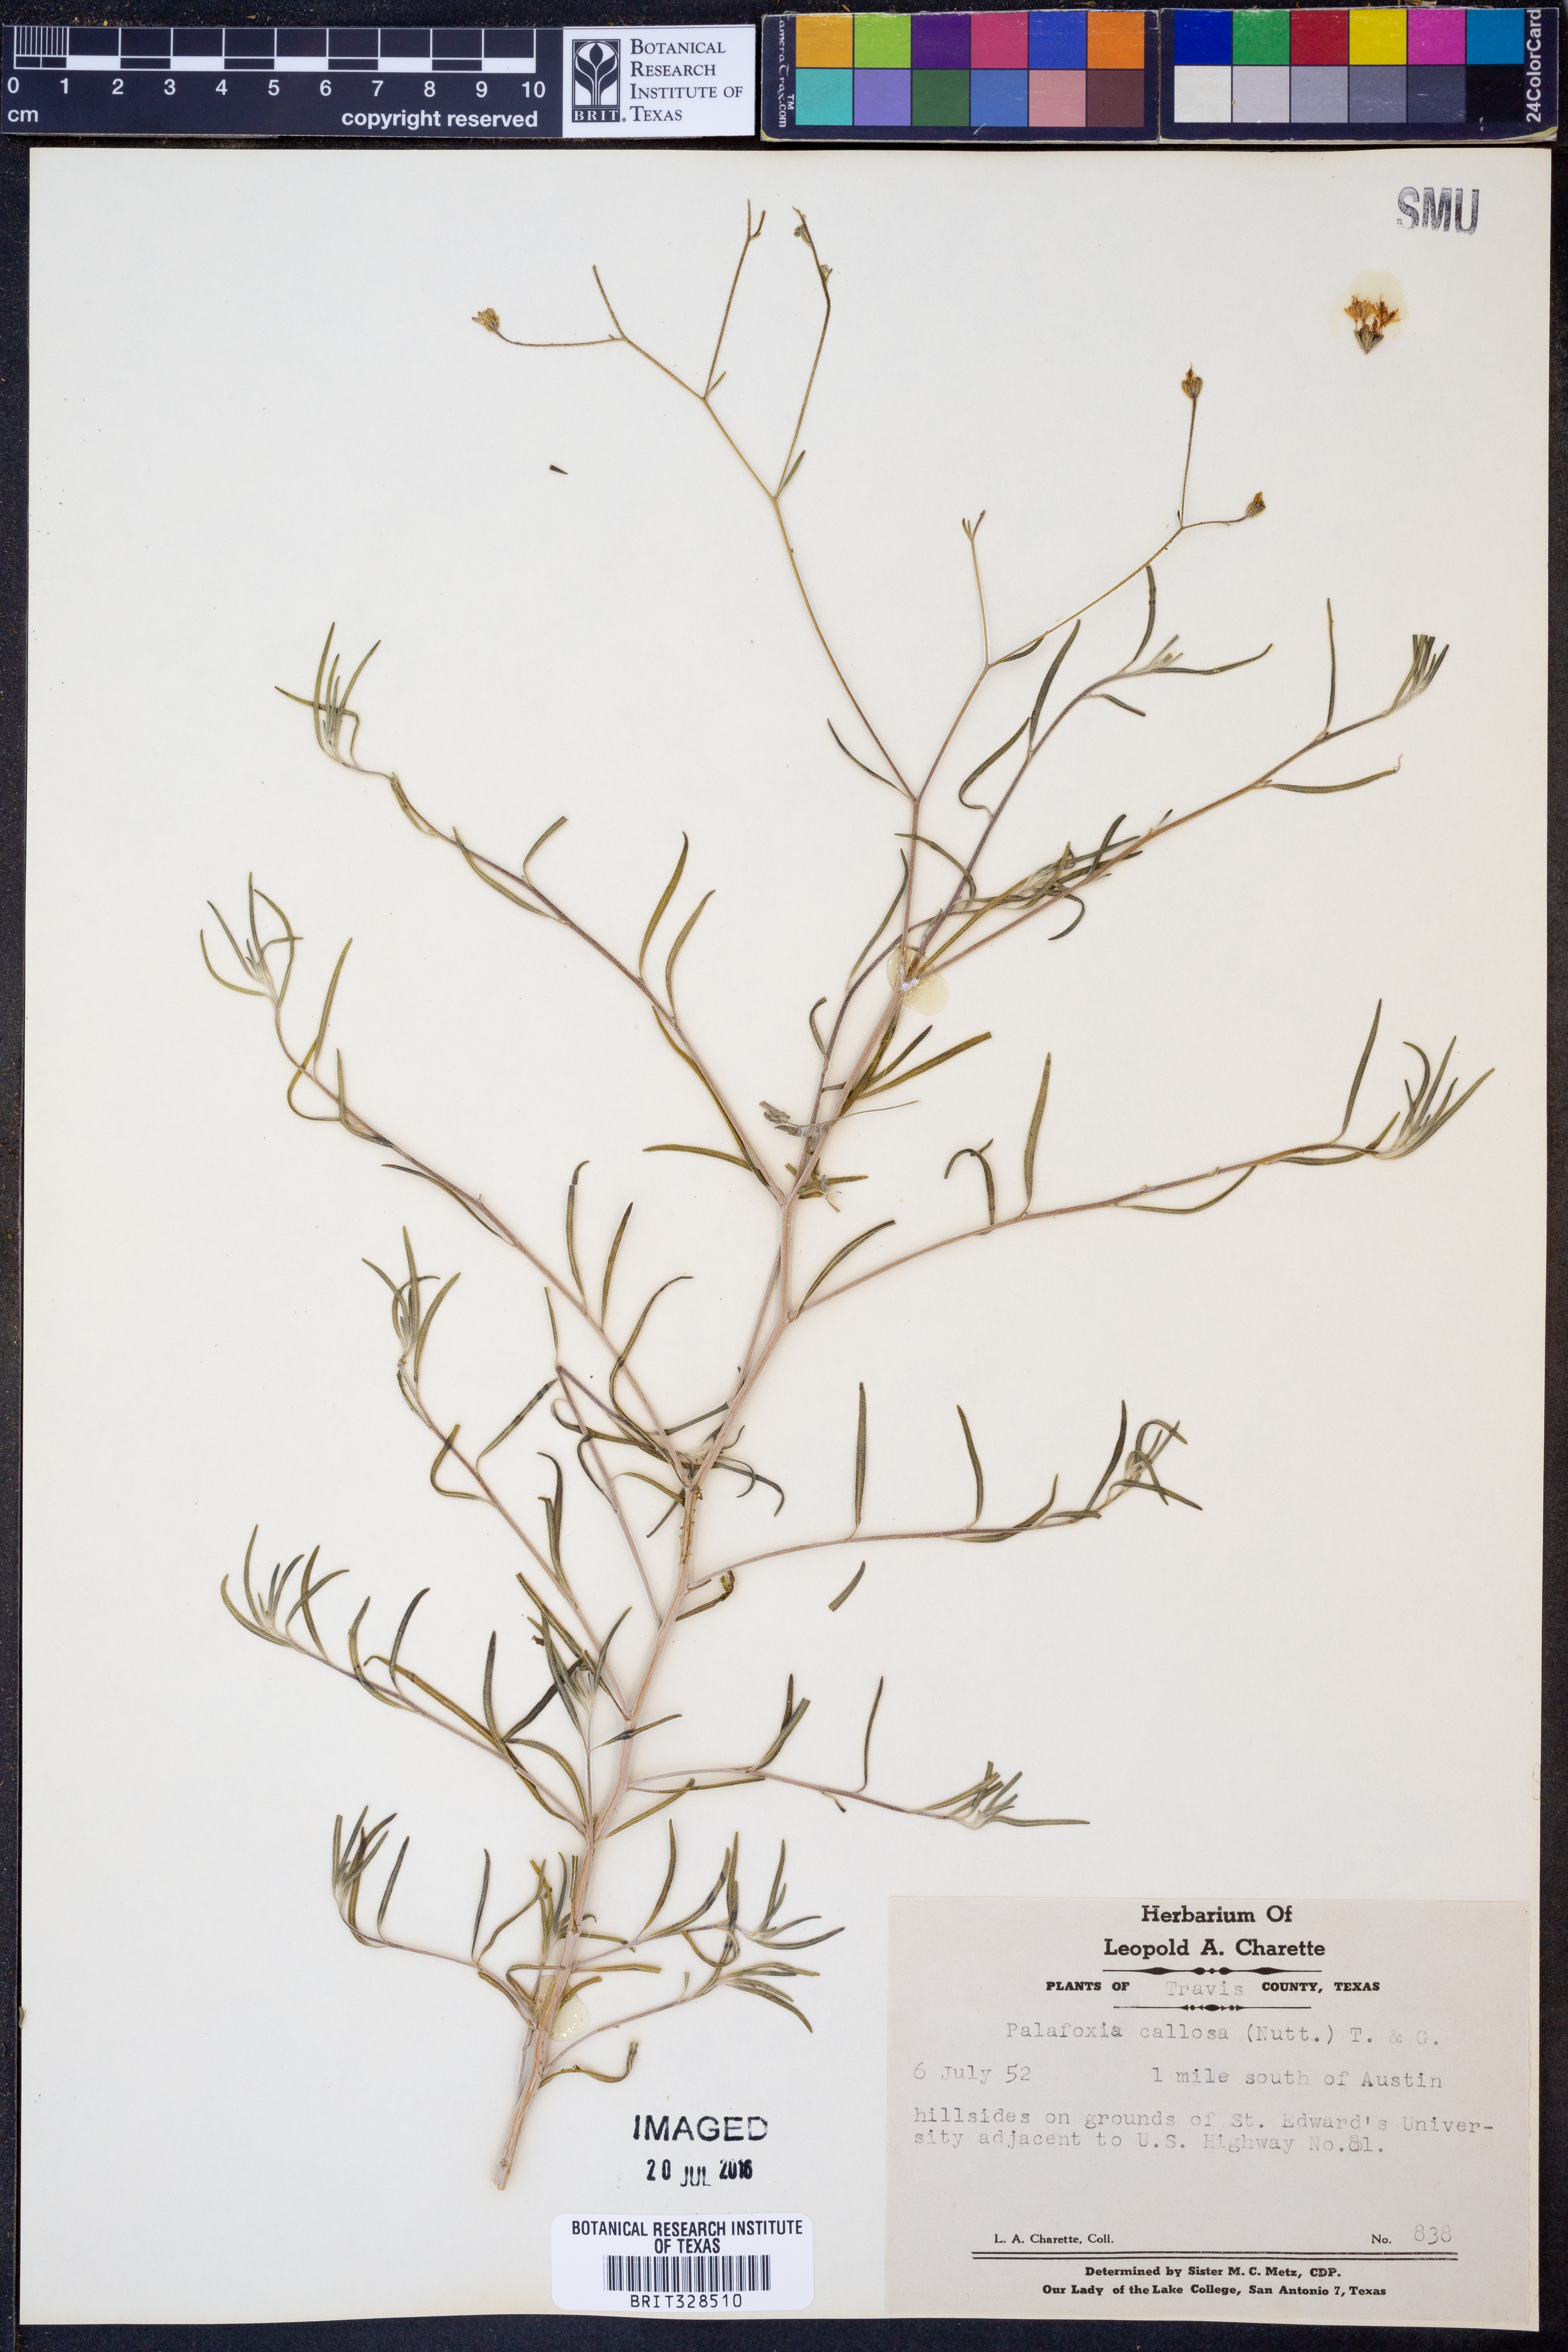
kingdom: Plantae
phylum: Tracheophyta
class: Magnoliopsida
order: Asterales
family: Asteraceae
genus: Palafoxia
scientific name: Palafoxia callosa
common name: Small palafox
